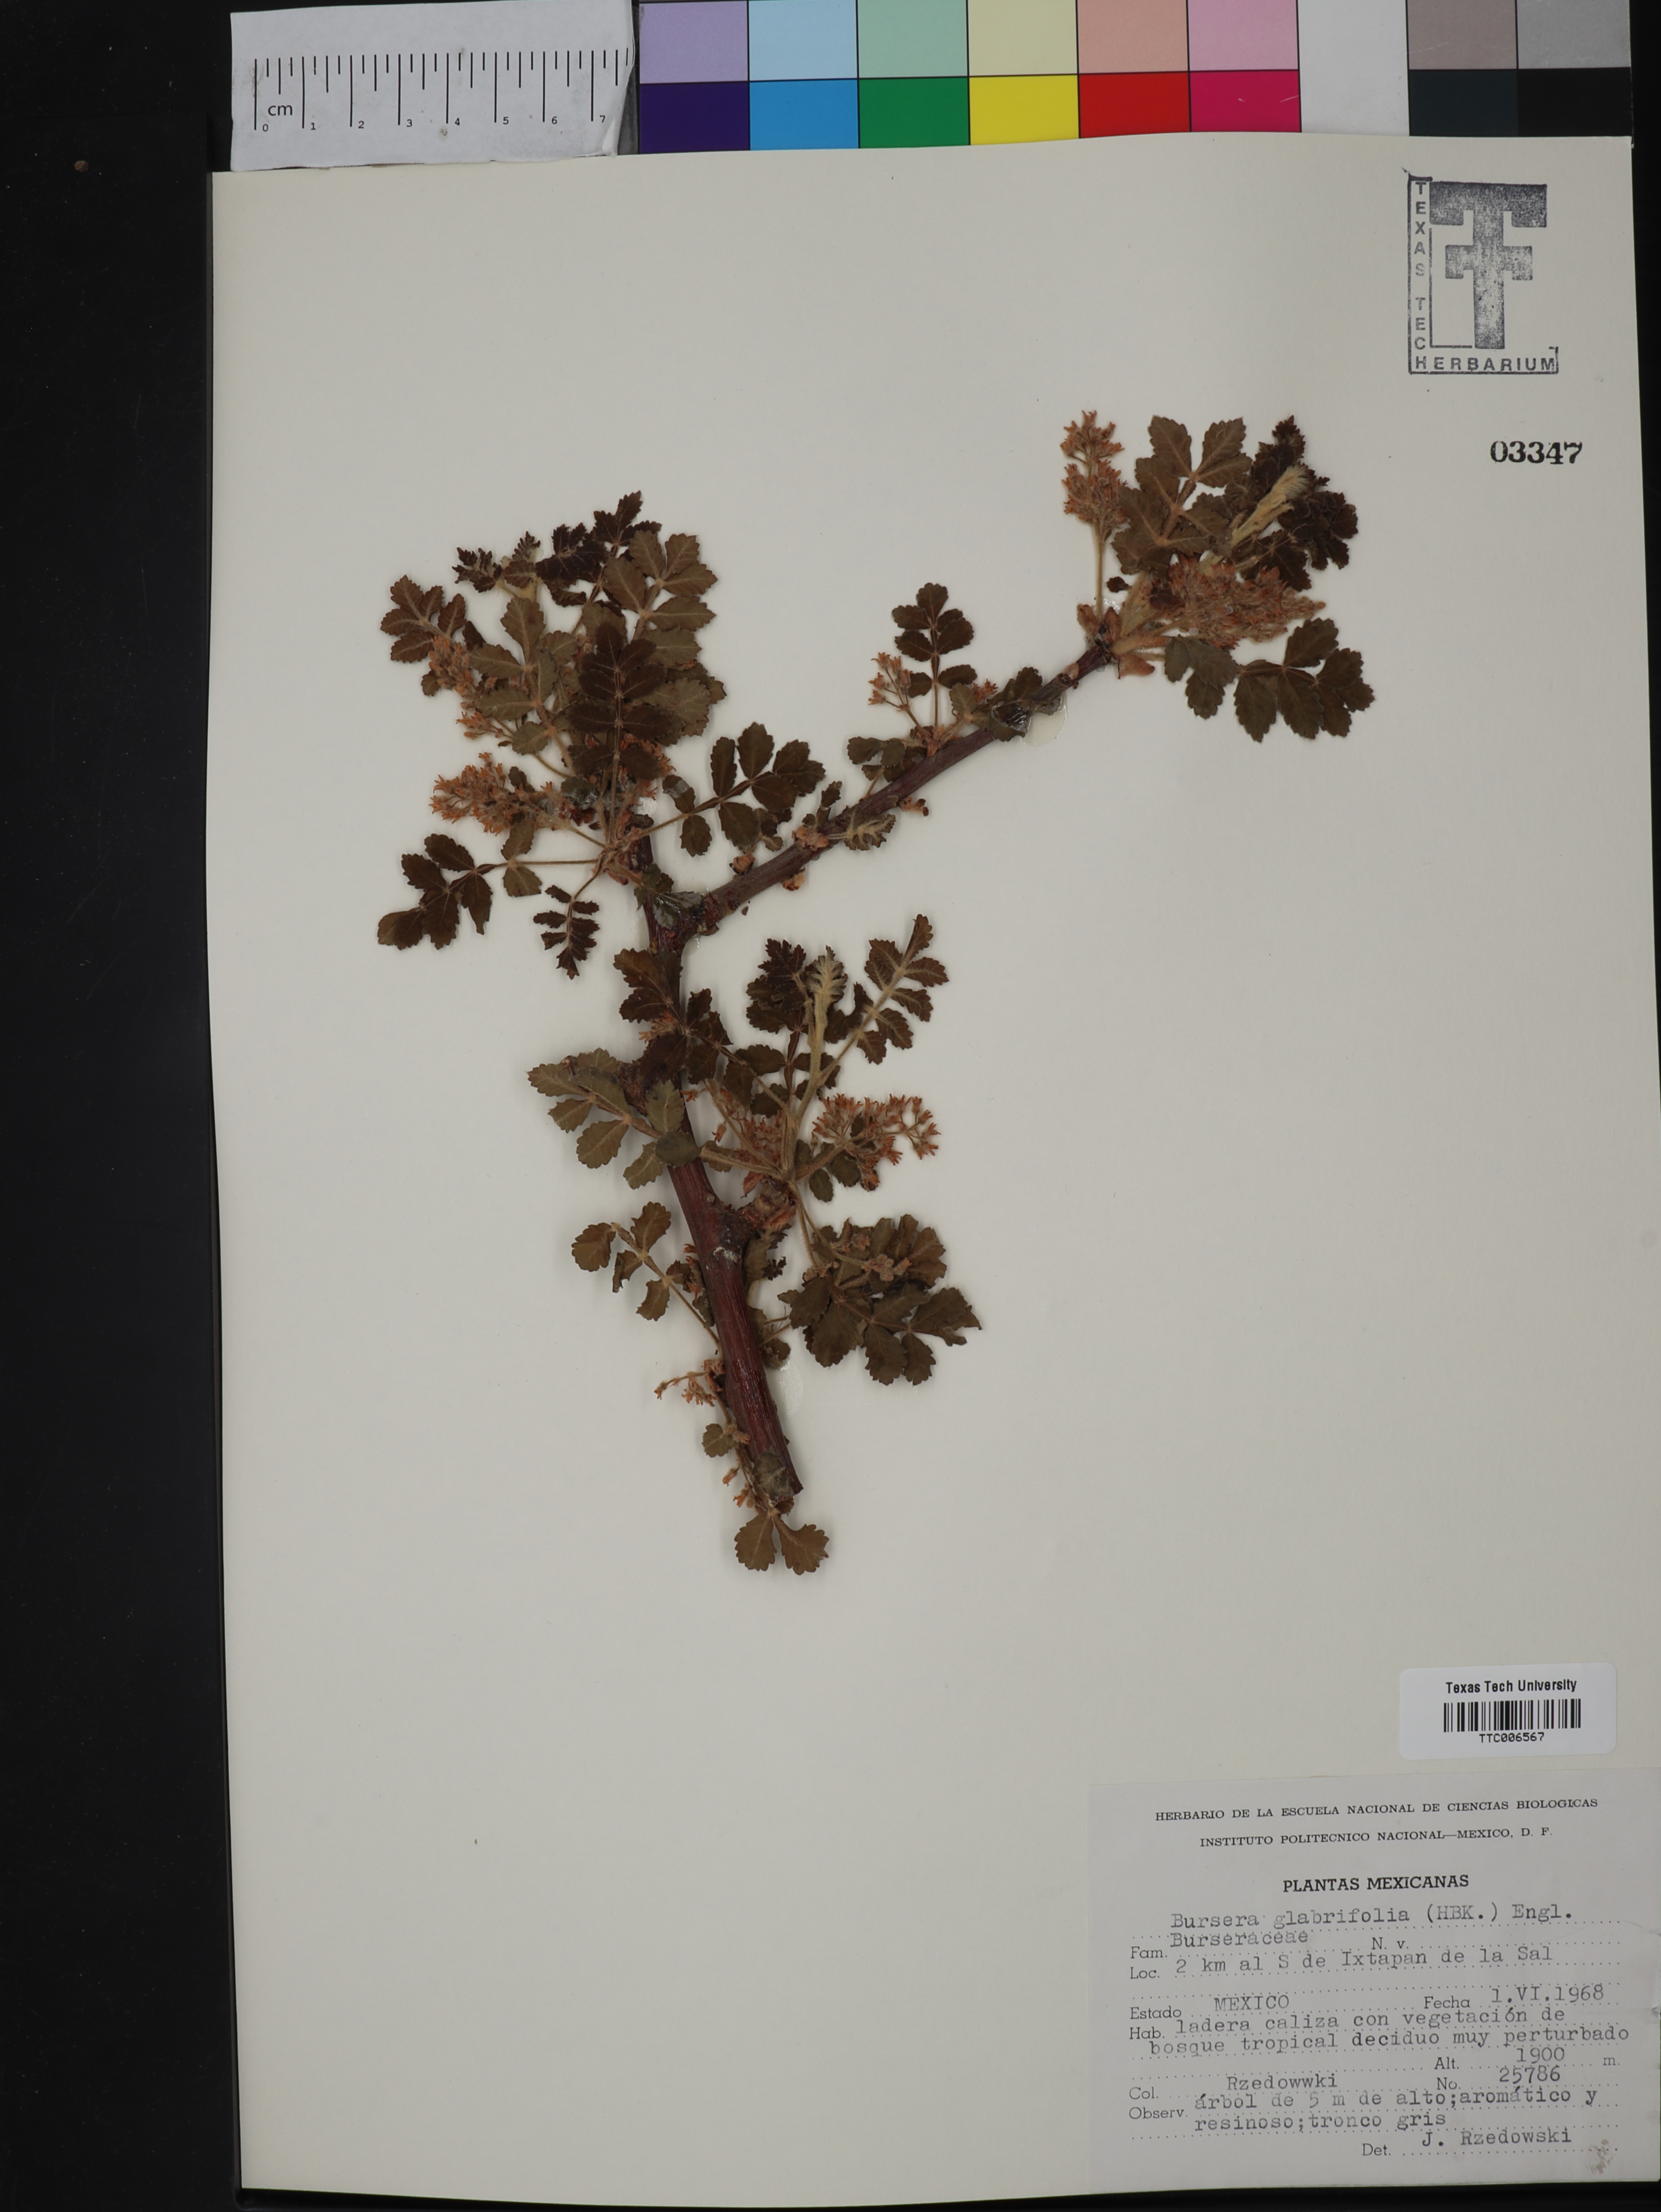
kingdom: Plantae
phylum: Tracheophyta
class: Magnoliopsida
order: Sapindales
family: Burseraceae
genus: Bursera
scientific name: Bursera glabrifolia
